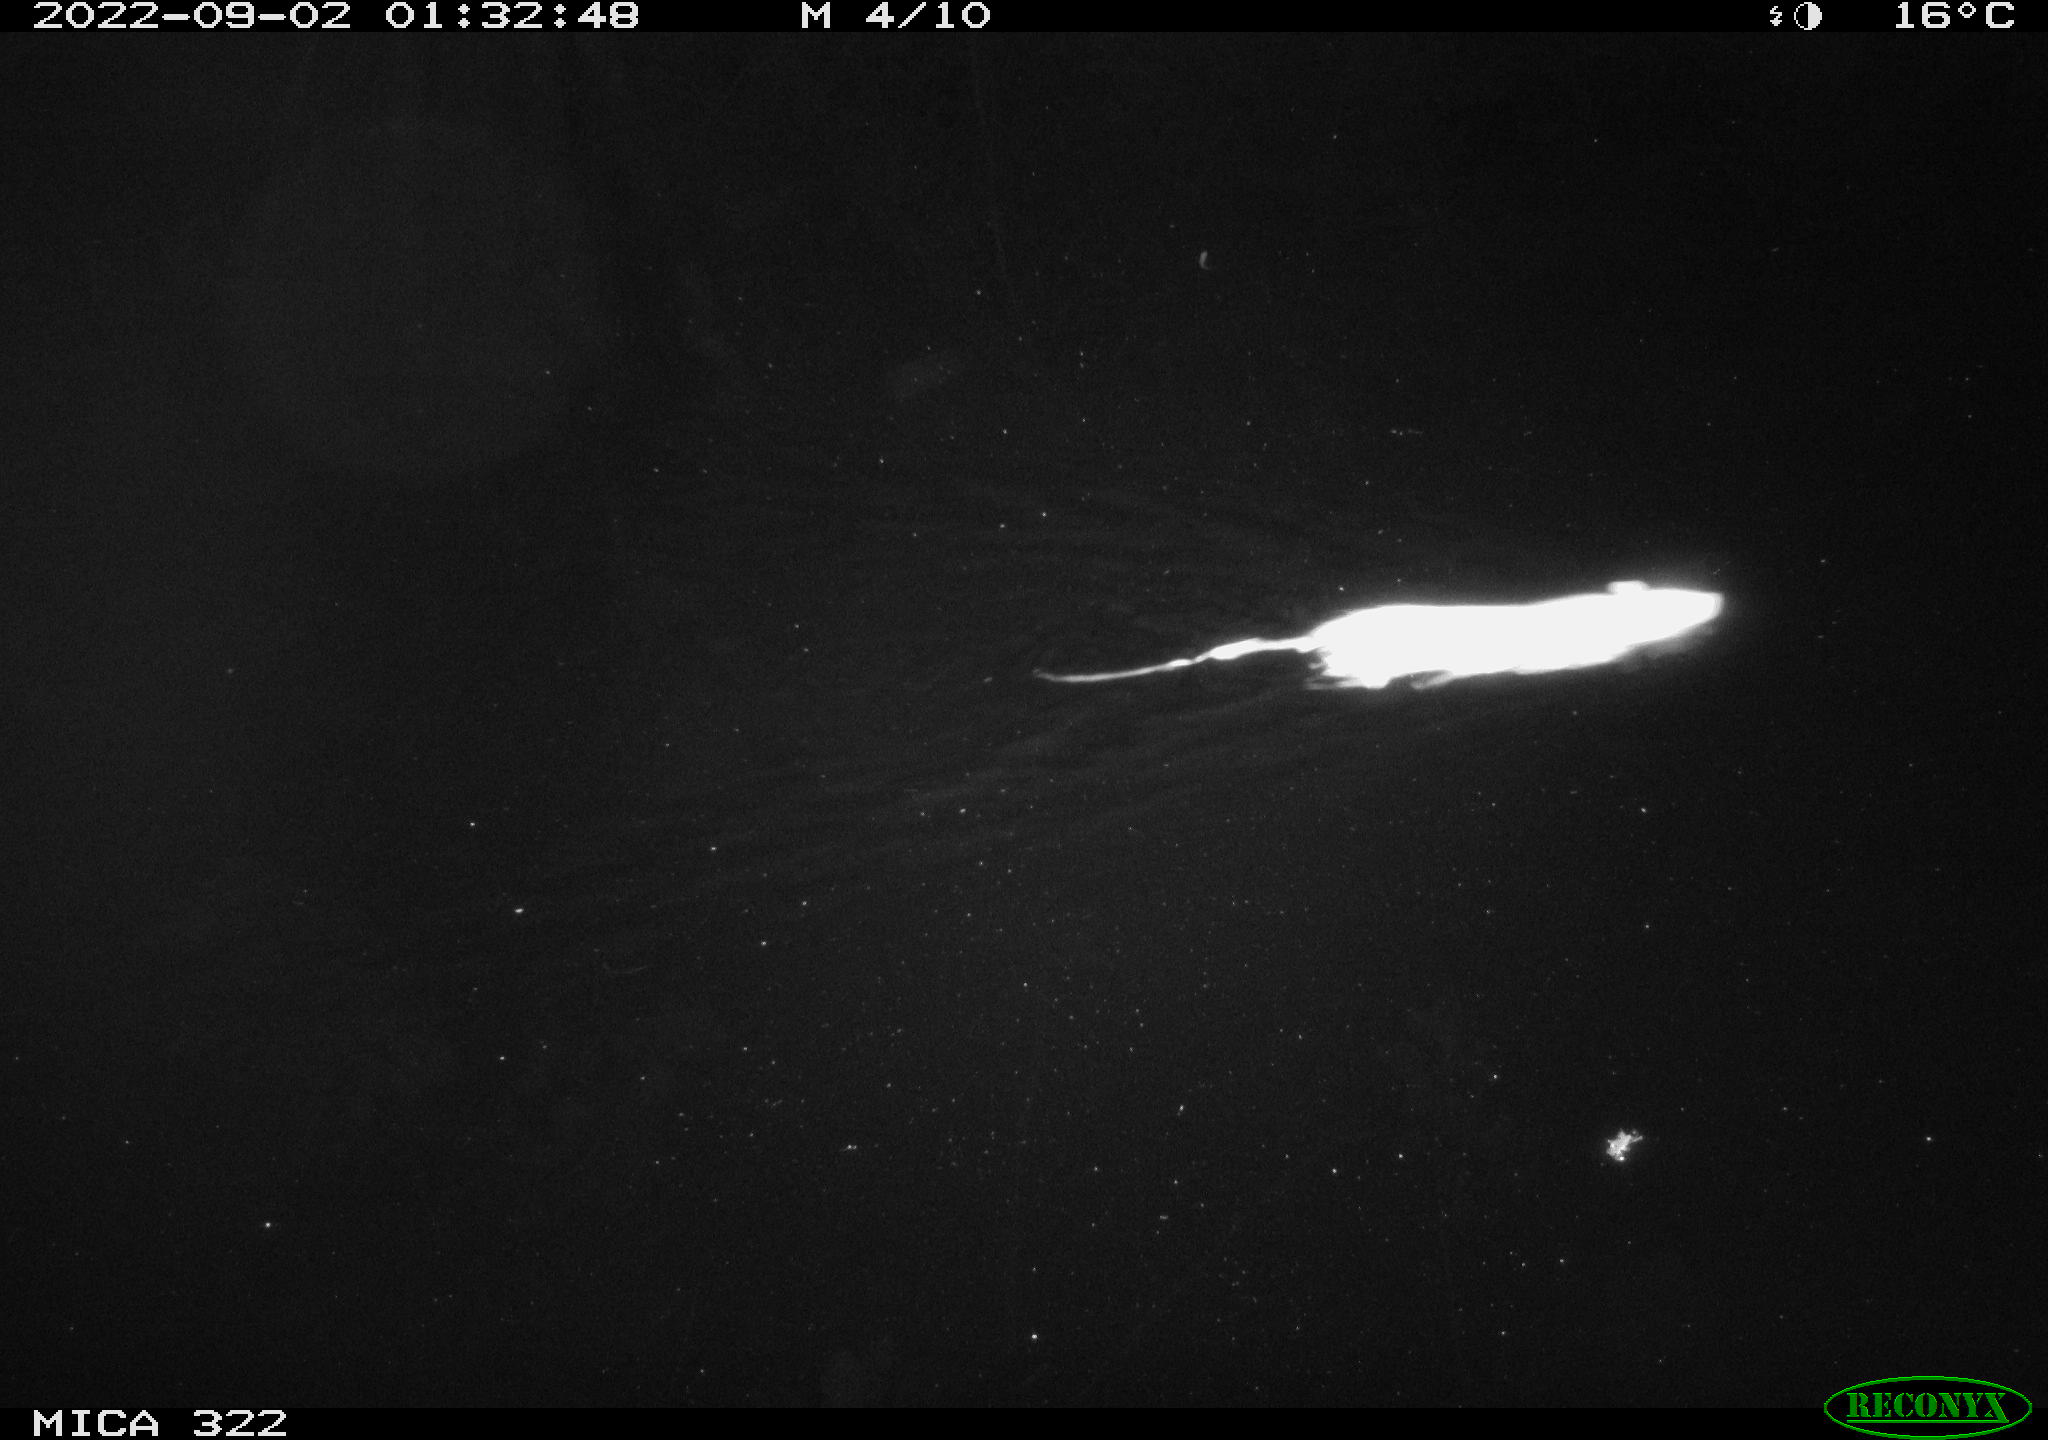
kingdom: Animalia
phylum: Chordata
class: Mammalia
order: Rodentia
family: Muridae
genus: Rattus
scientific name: Rattus norvegicus
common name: Brown rat
